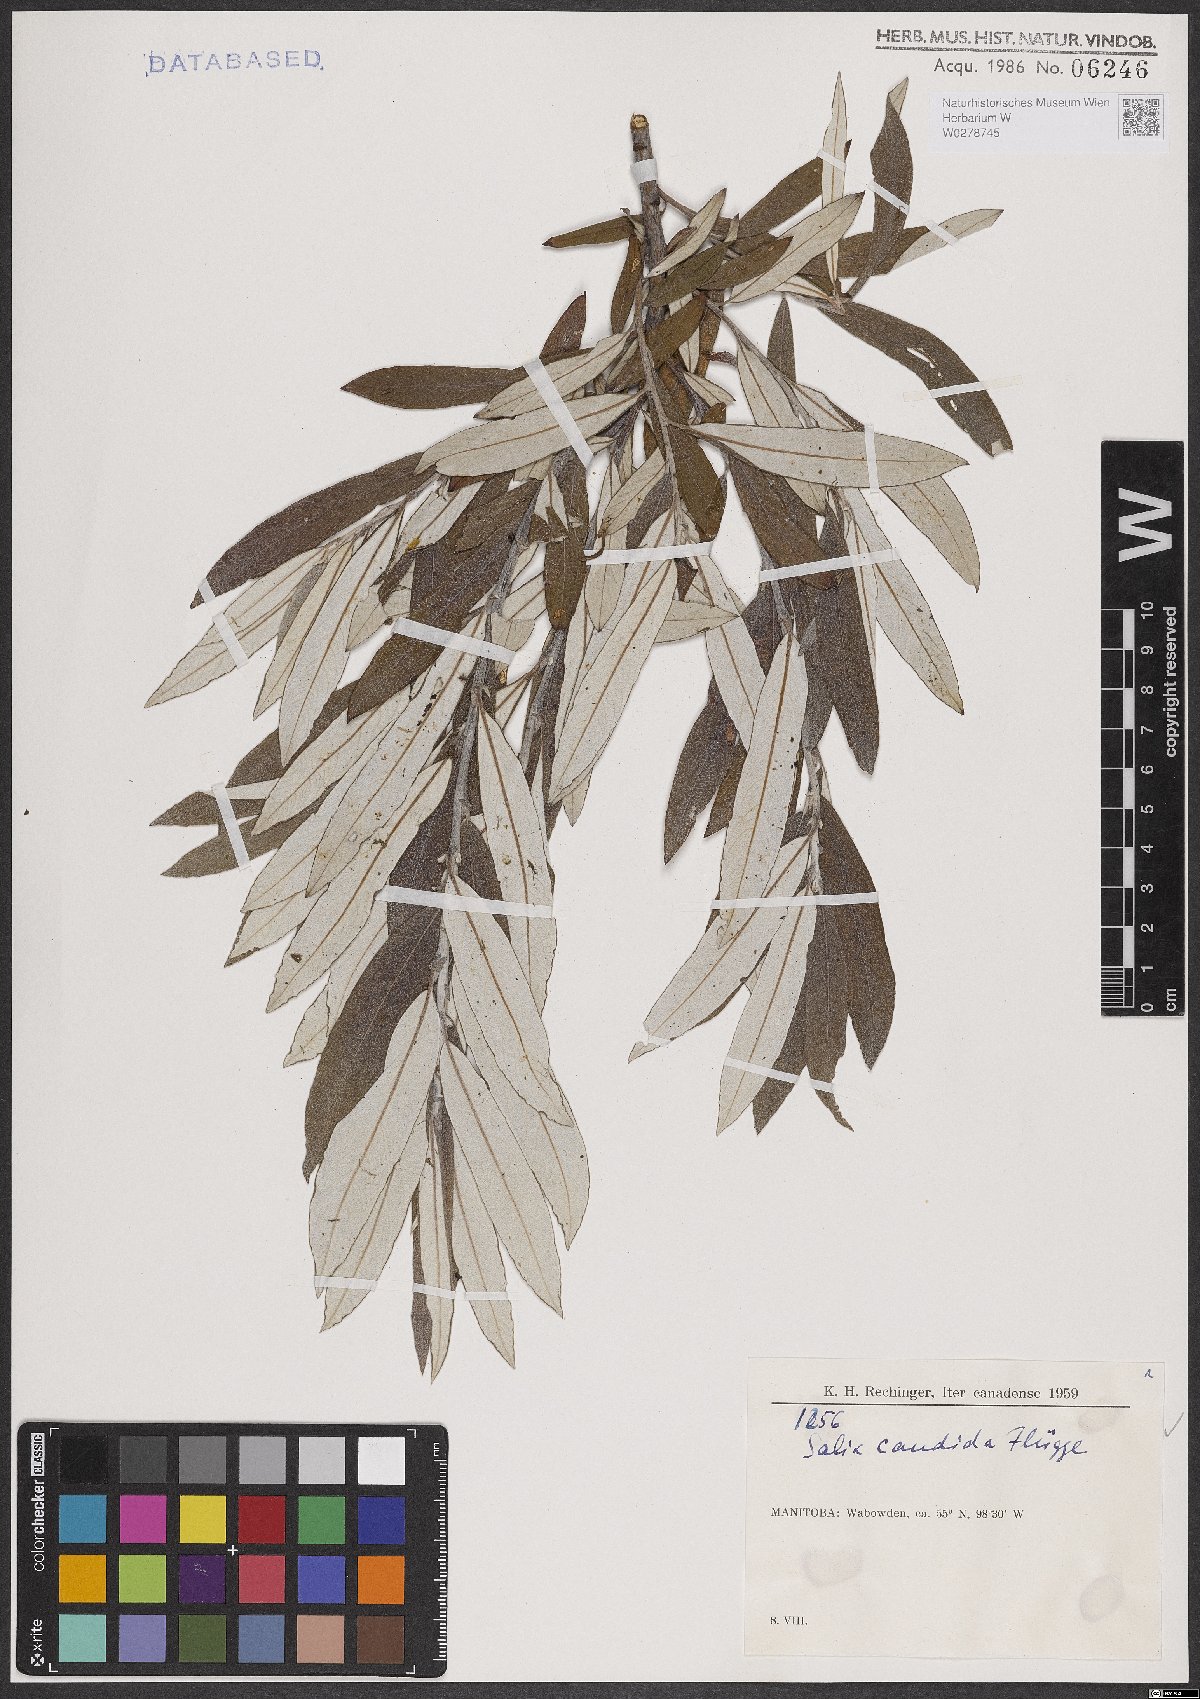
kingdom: Plantae
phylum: Tracheophyta
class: Magnoliopsida
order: Malpighiales
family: Salicaceae
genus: Salix
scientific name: Salix candida
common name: Hoary willow
